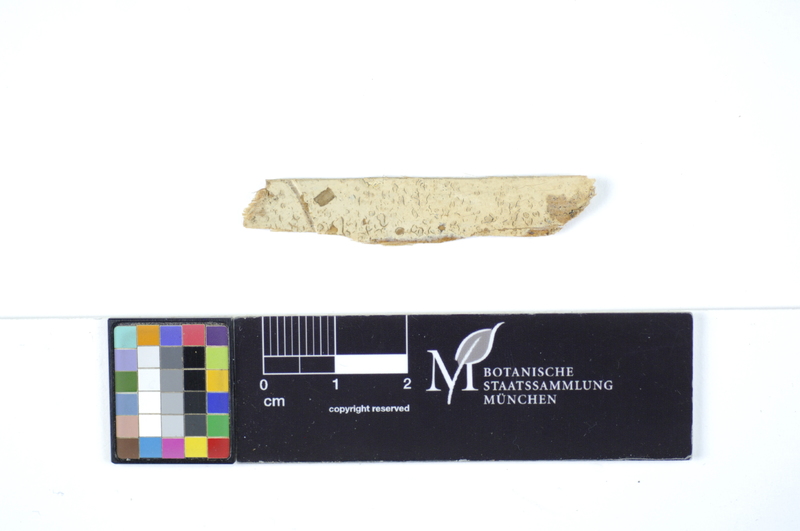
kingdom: Plantae
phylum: Tracheophyta
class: Pinopsida
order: Pinales
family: Pinaceae
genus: Pinus
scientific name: Pinus
